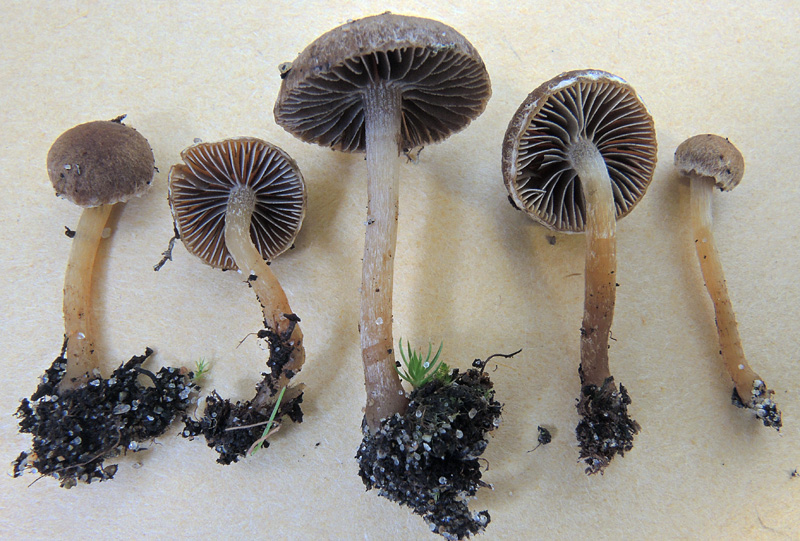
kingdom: Fungi
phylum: Basidiomycota
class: Agaricomycetes
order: Agaricales
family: Psathyrellaceae
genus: Psathyrella
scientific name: Psathyrella flexispora
